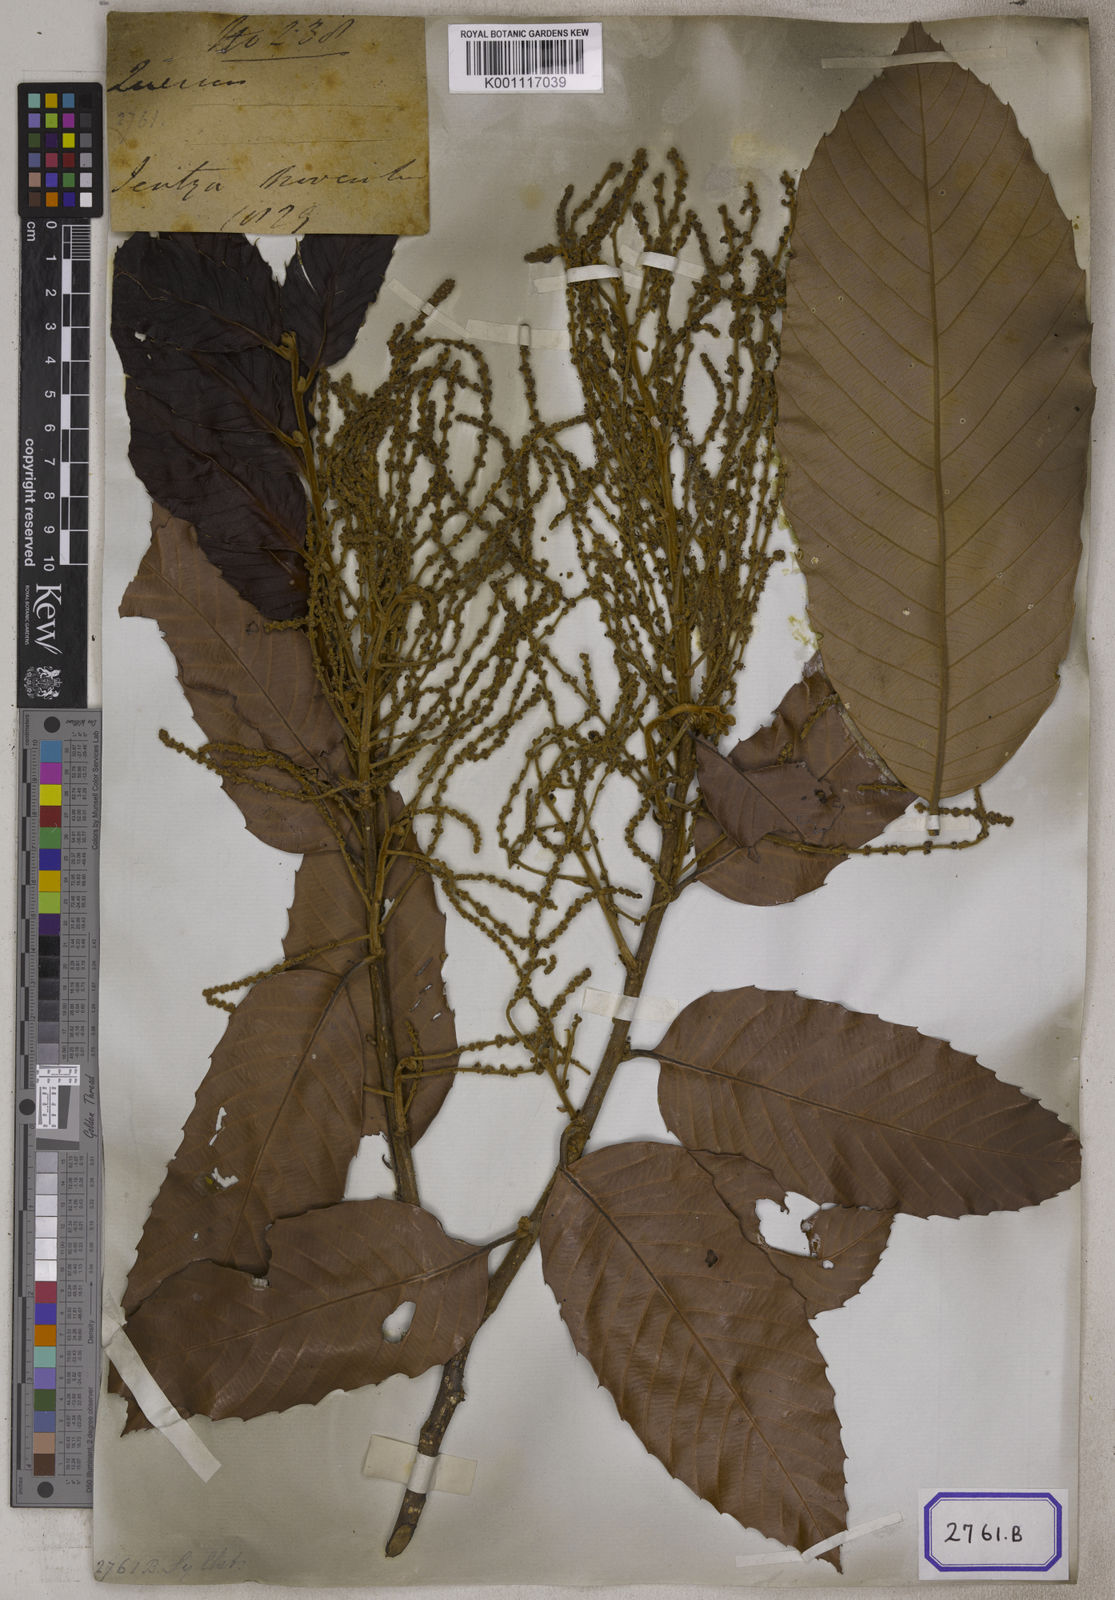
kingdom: Plantae
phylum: Tracheophyta
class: Magnoliopsida
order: Fagales
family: Fagaceae
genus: Castanopsis
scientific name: Castanopsis indica
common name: Indian-chestnut
